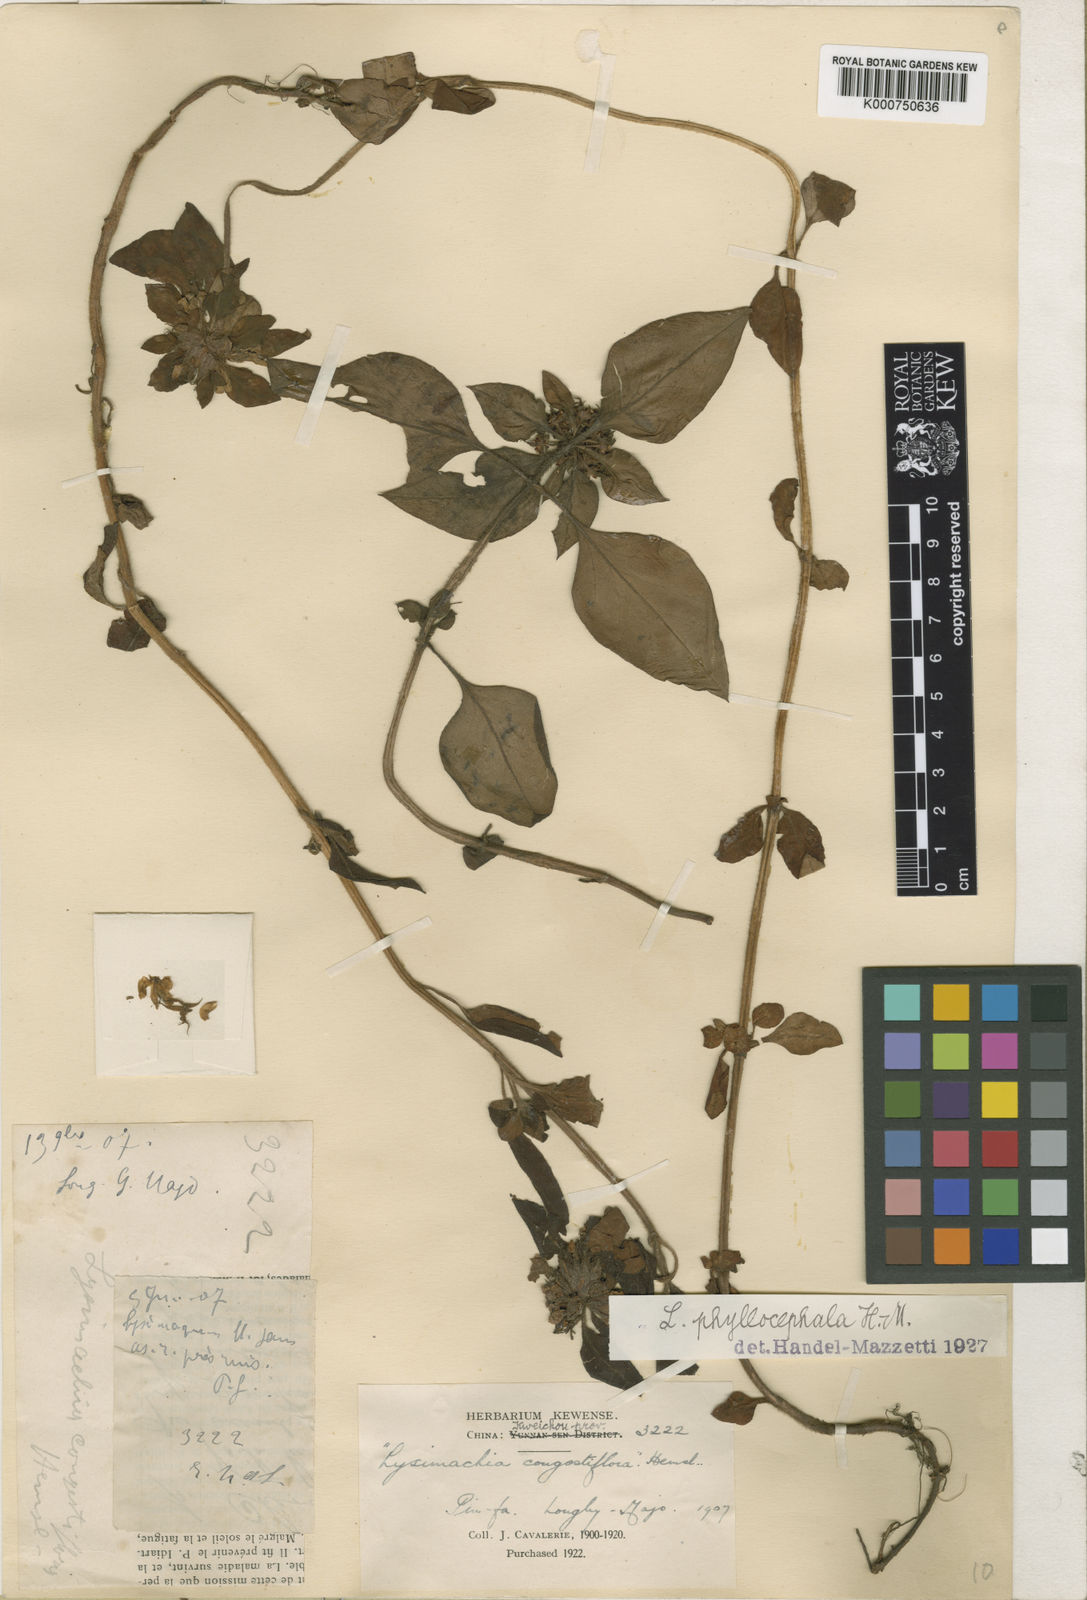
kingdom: Plantae
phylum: Tracheophyta
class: Magnoliopsida
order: Ericales
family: Primulaceae
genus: Lysimachia
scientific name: Lysimachia phyllocephala
